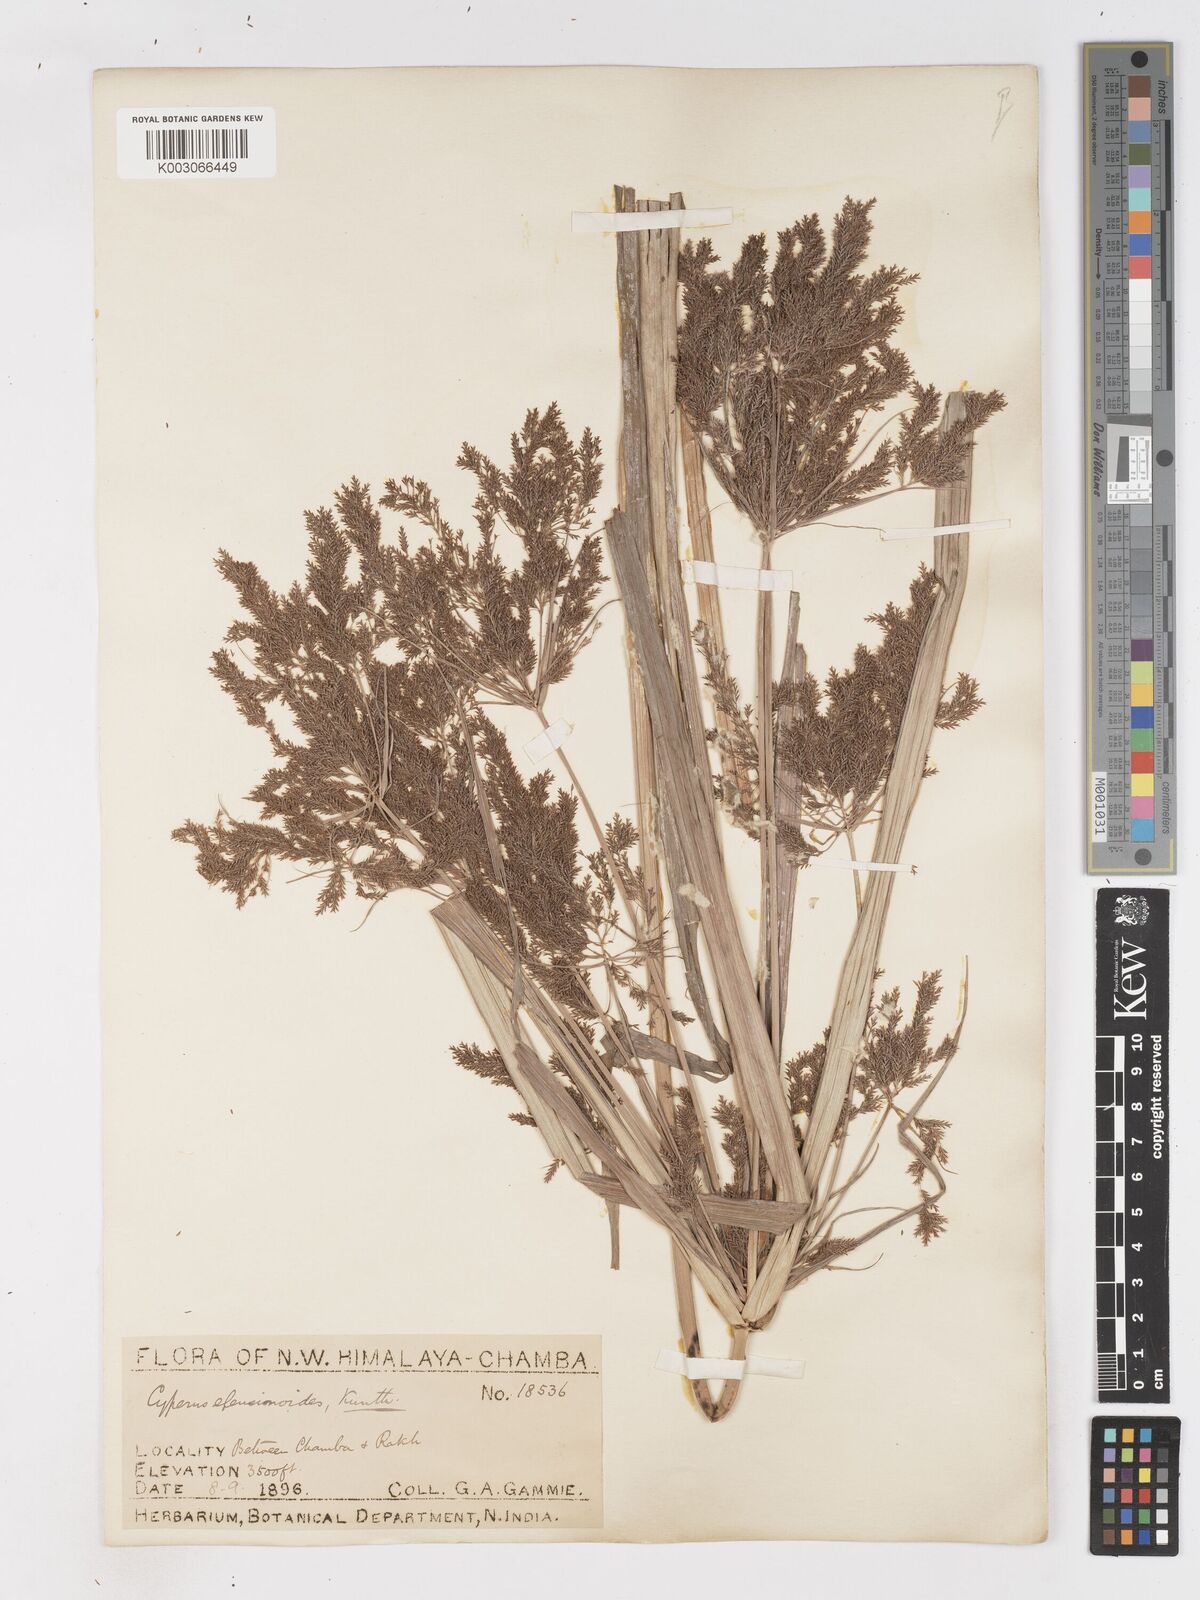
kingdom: Plantae
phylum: Tracheophyta
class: Liliopsida
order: Poales
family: Cyperaceae
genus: Cyperus
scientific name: Cyperus nutans
